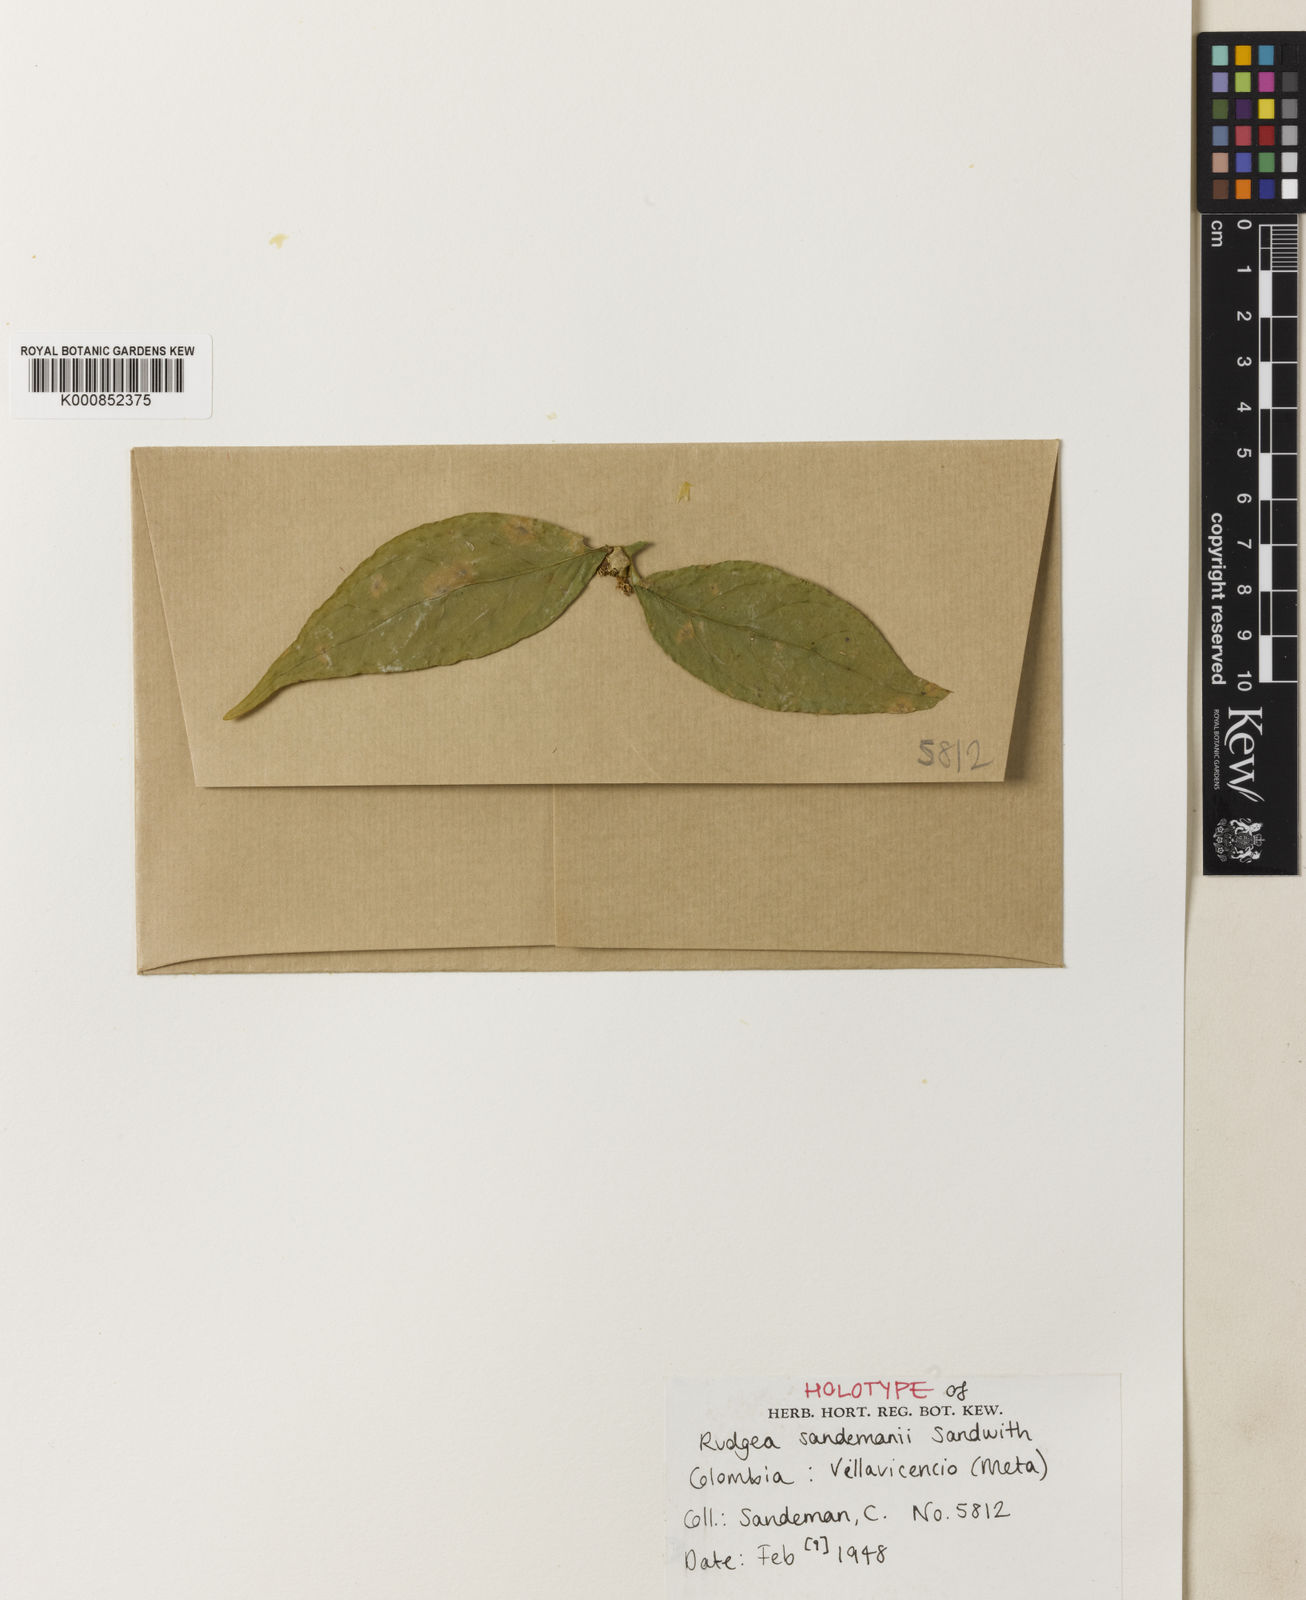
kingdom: Plantae
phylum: Tracheophyta
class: Magnoliopsida
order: Gentianales
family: Rubiaceae
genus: Rudgea
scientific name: Rudgea sandemanii
